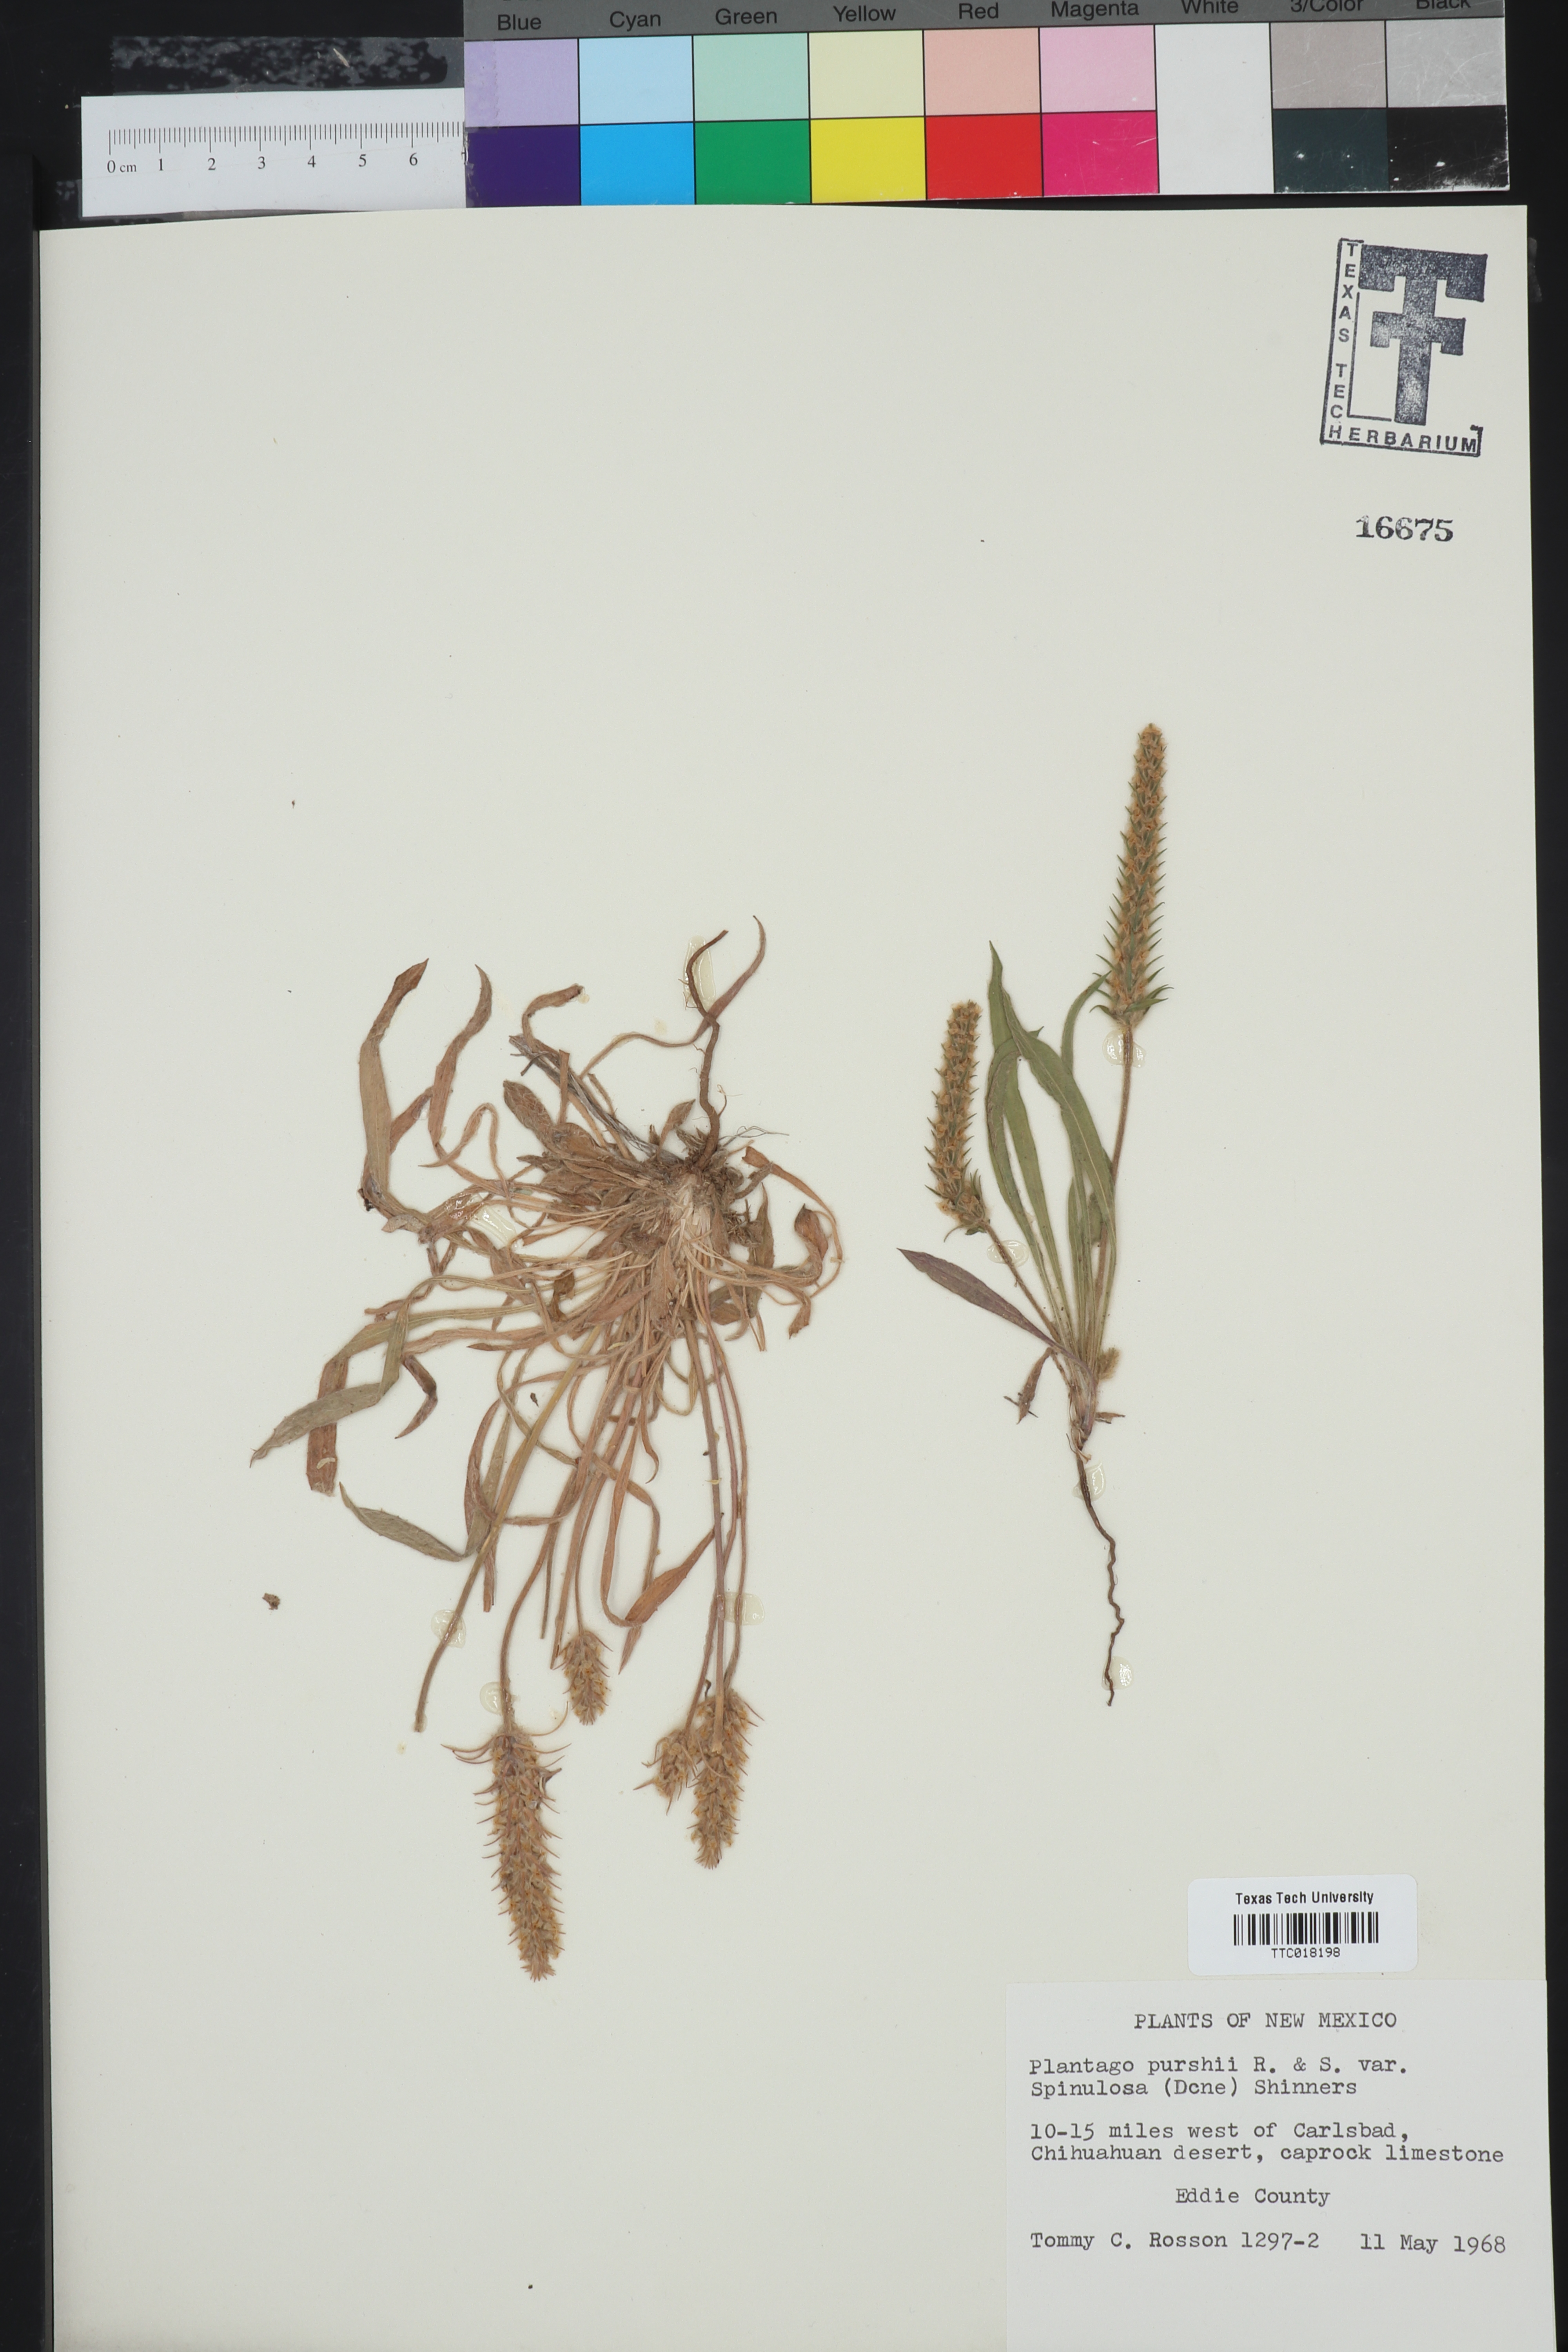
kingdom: Plantae
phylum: Tracheophyta
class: Magnoliopsida
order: Lamiales
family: Plantaginaceae
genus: Plantago
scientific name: Plantago patagonica
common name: Patagonia indian-wheat
